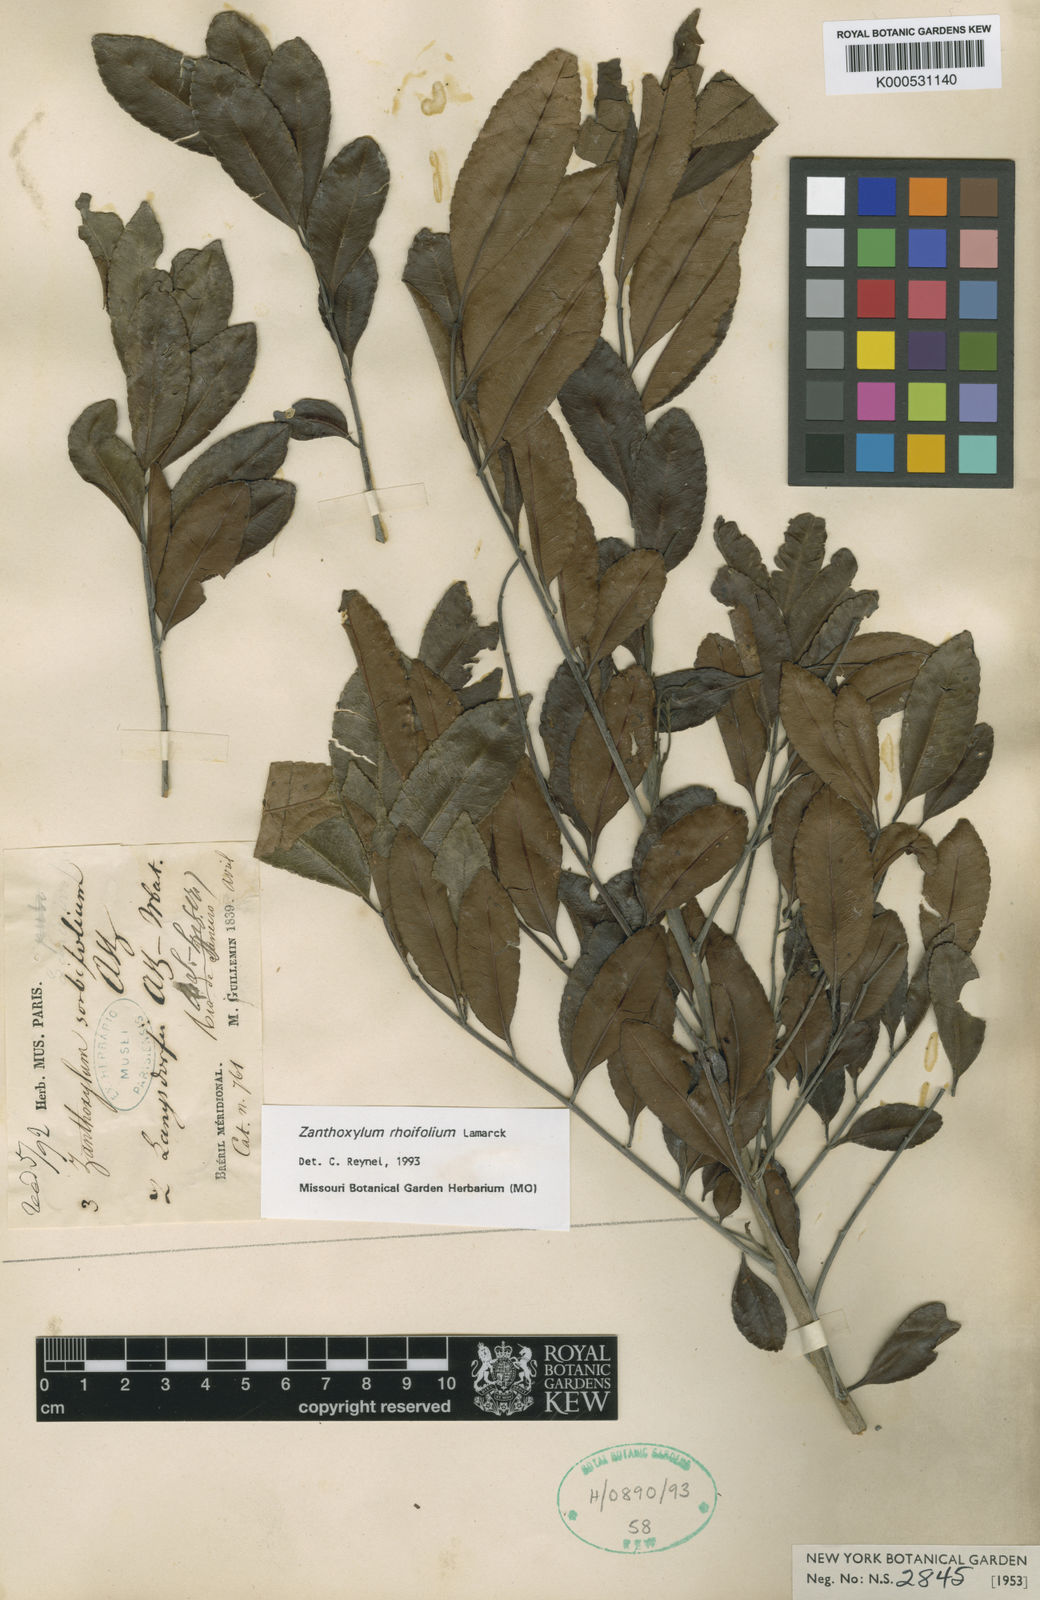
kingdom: Plantae
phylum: Tracheophyta
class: Magnoliopsida
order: Sapindales
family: Rutaceae
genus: Zanthoxylum
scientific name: Zanthoxylum rhoifolium
